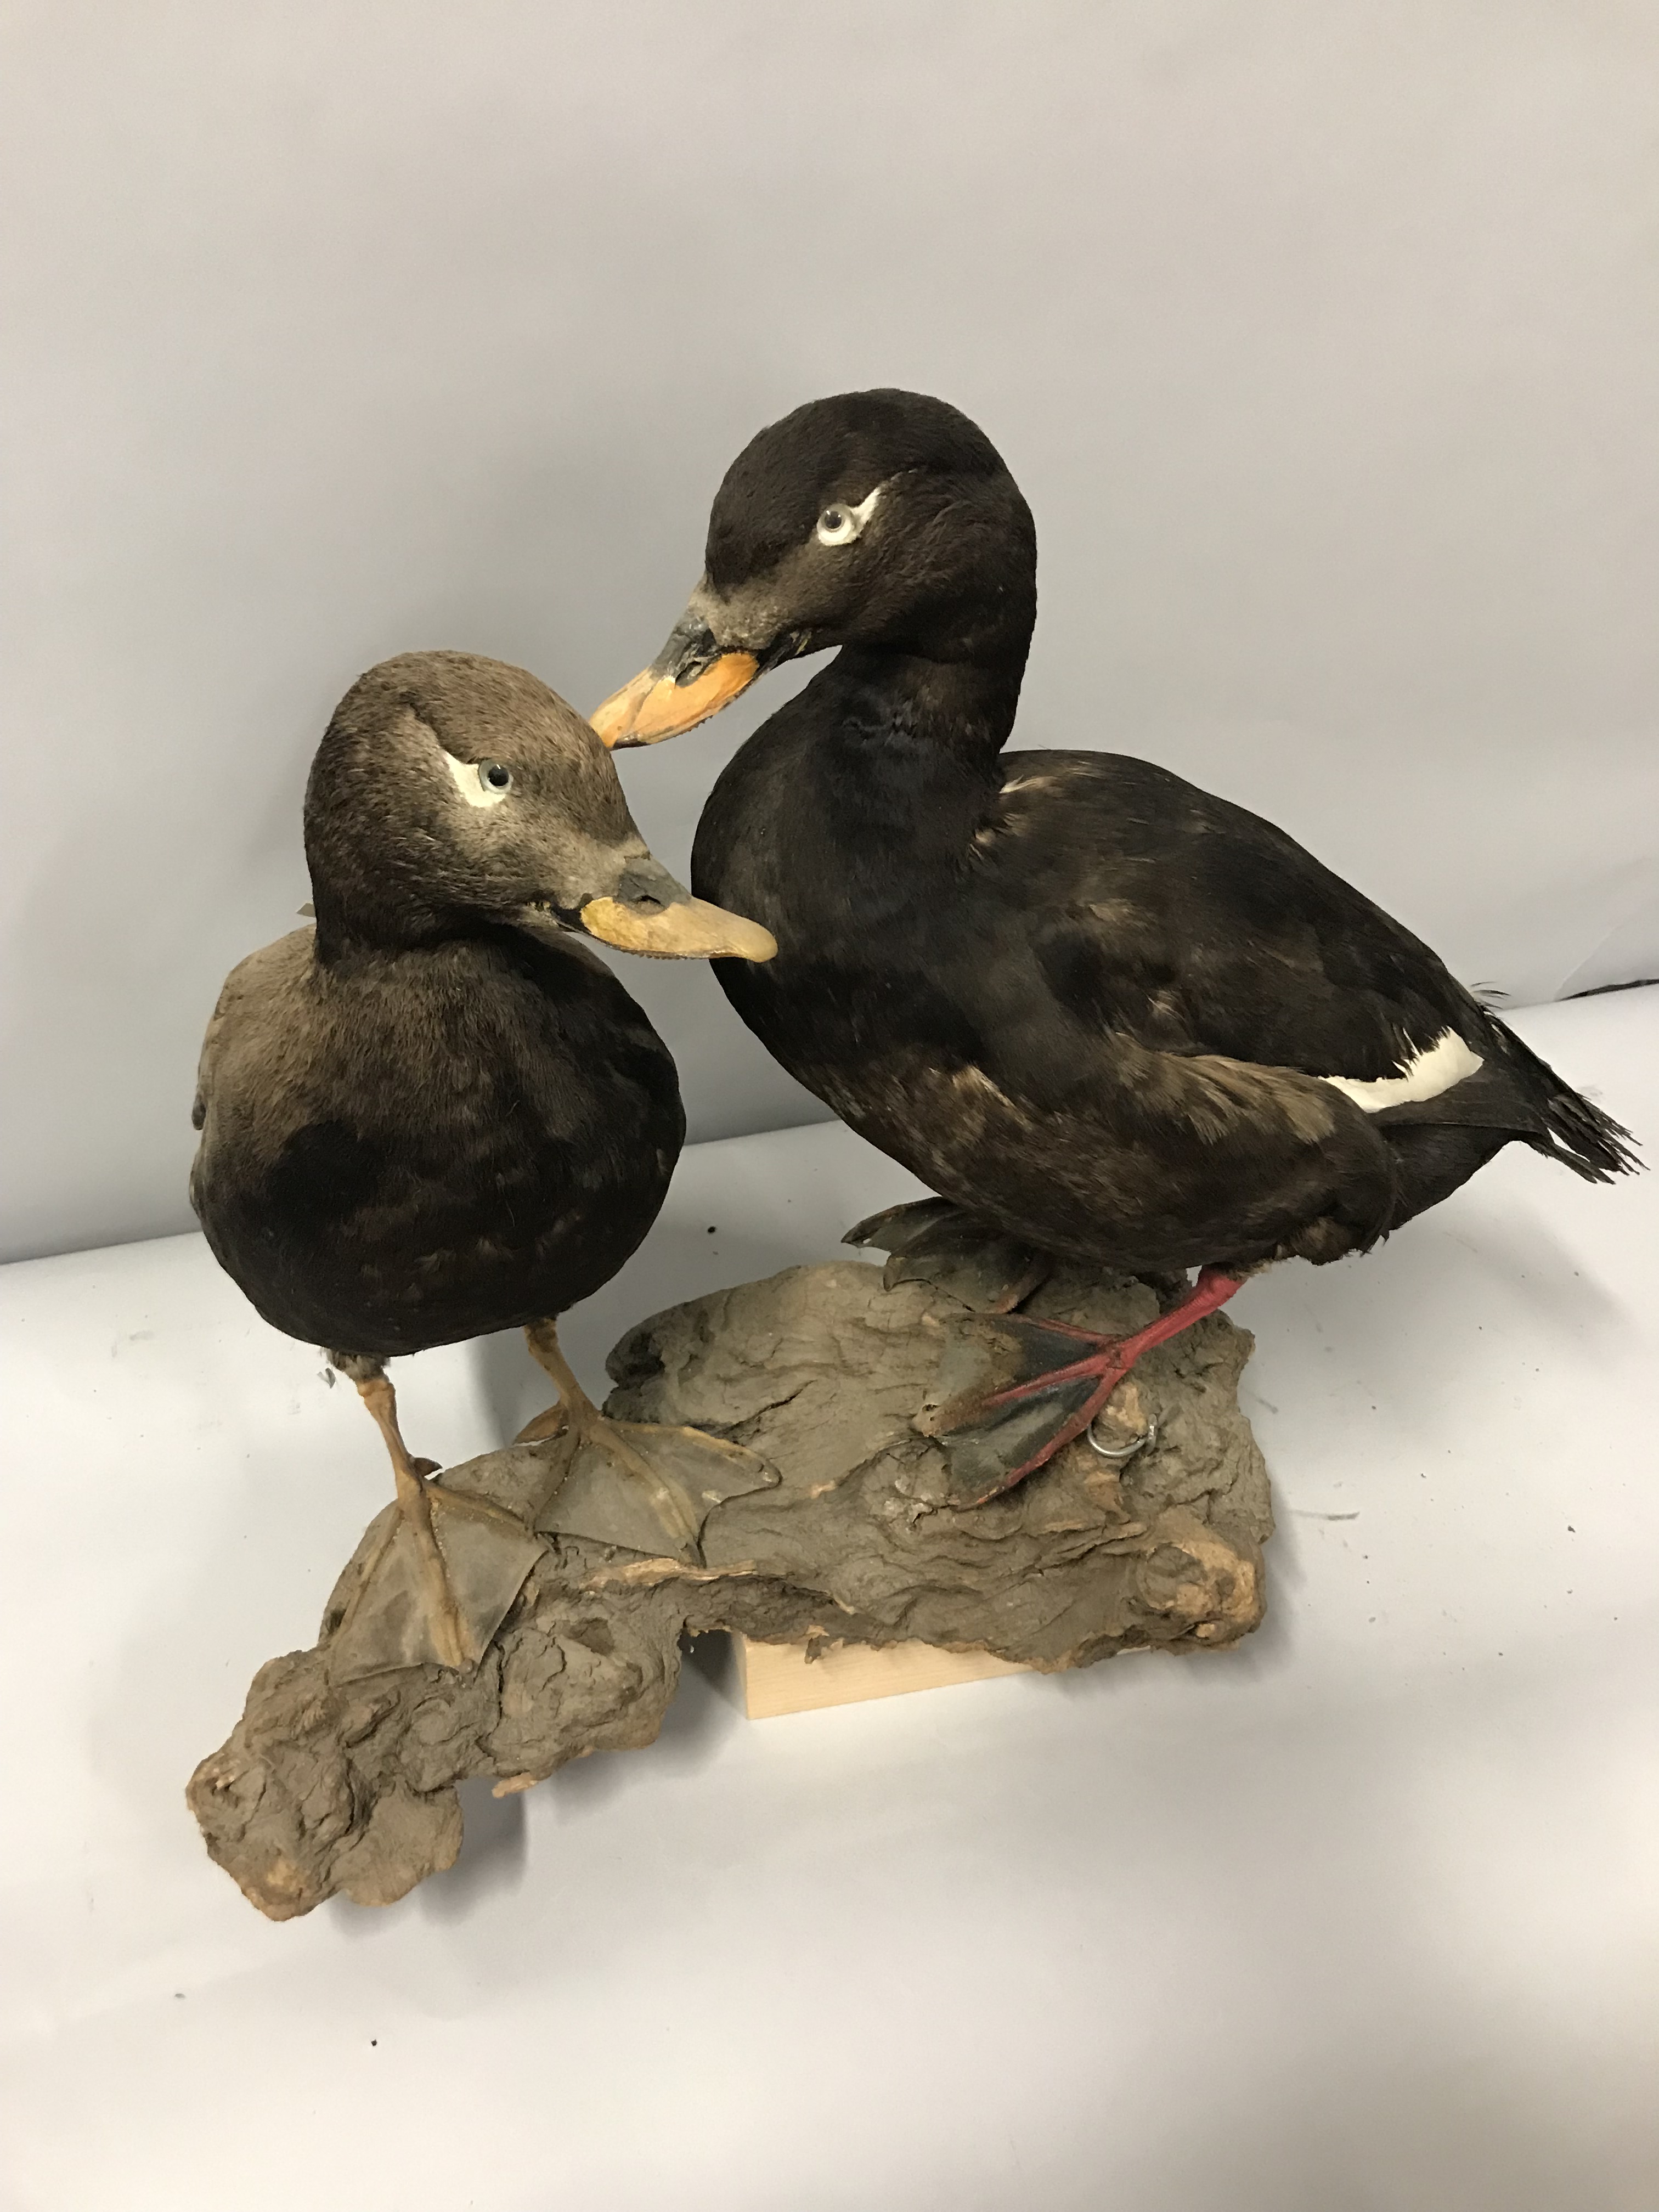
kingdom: Animalia
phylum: Chordata
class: Aves
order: Anseriformes
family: Anatidae
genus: Melanitta
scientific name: Melanitta fusca
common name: Velvet scoter
